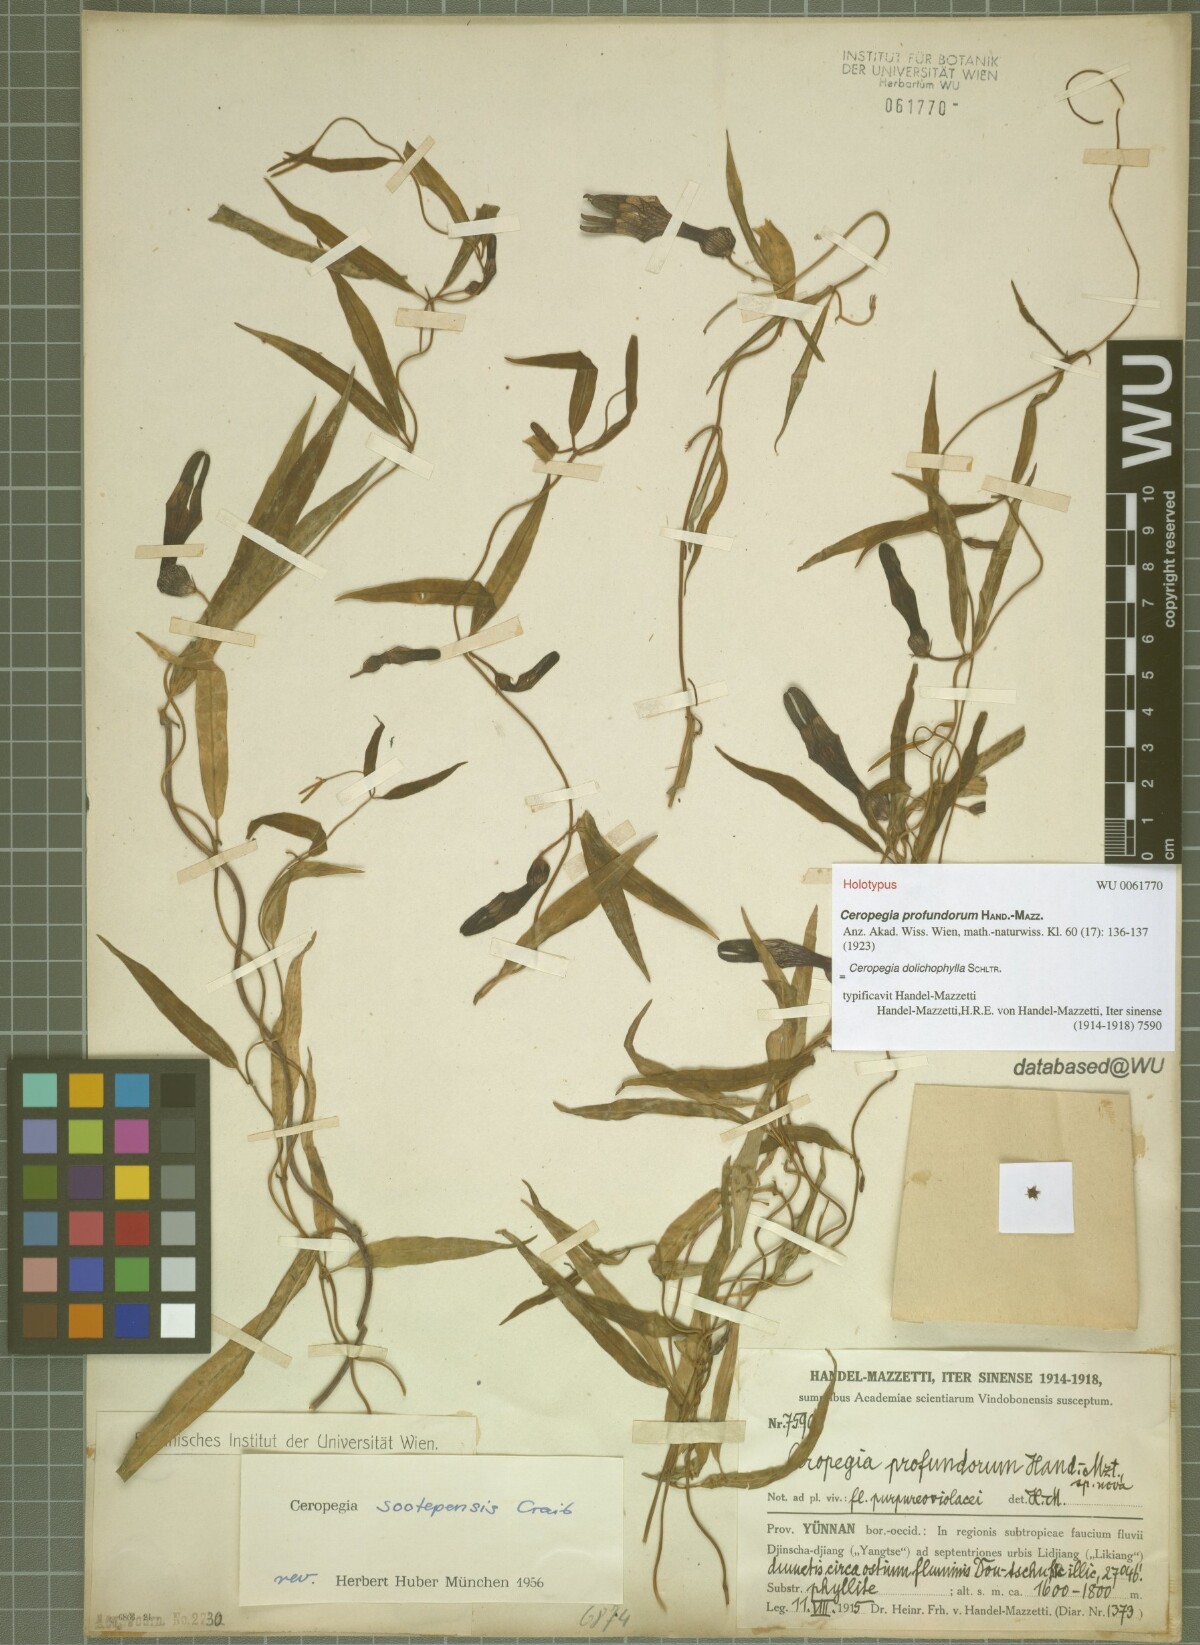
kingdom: Plantae
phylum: Tracheophyta
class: Magnoliopsida
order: Gentianales
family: Apocynaceae
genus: Ceropegia
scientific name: Ceropegia dolichophylla
